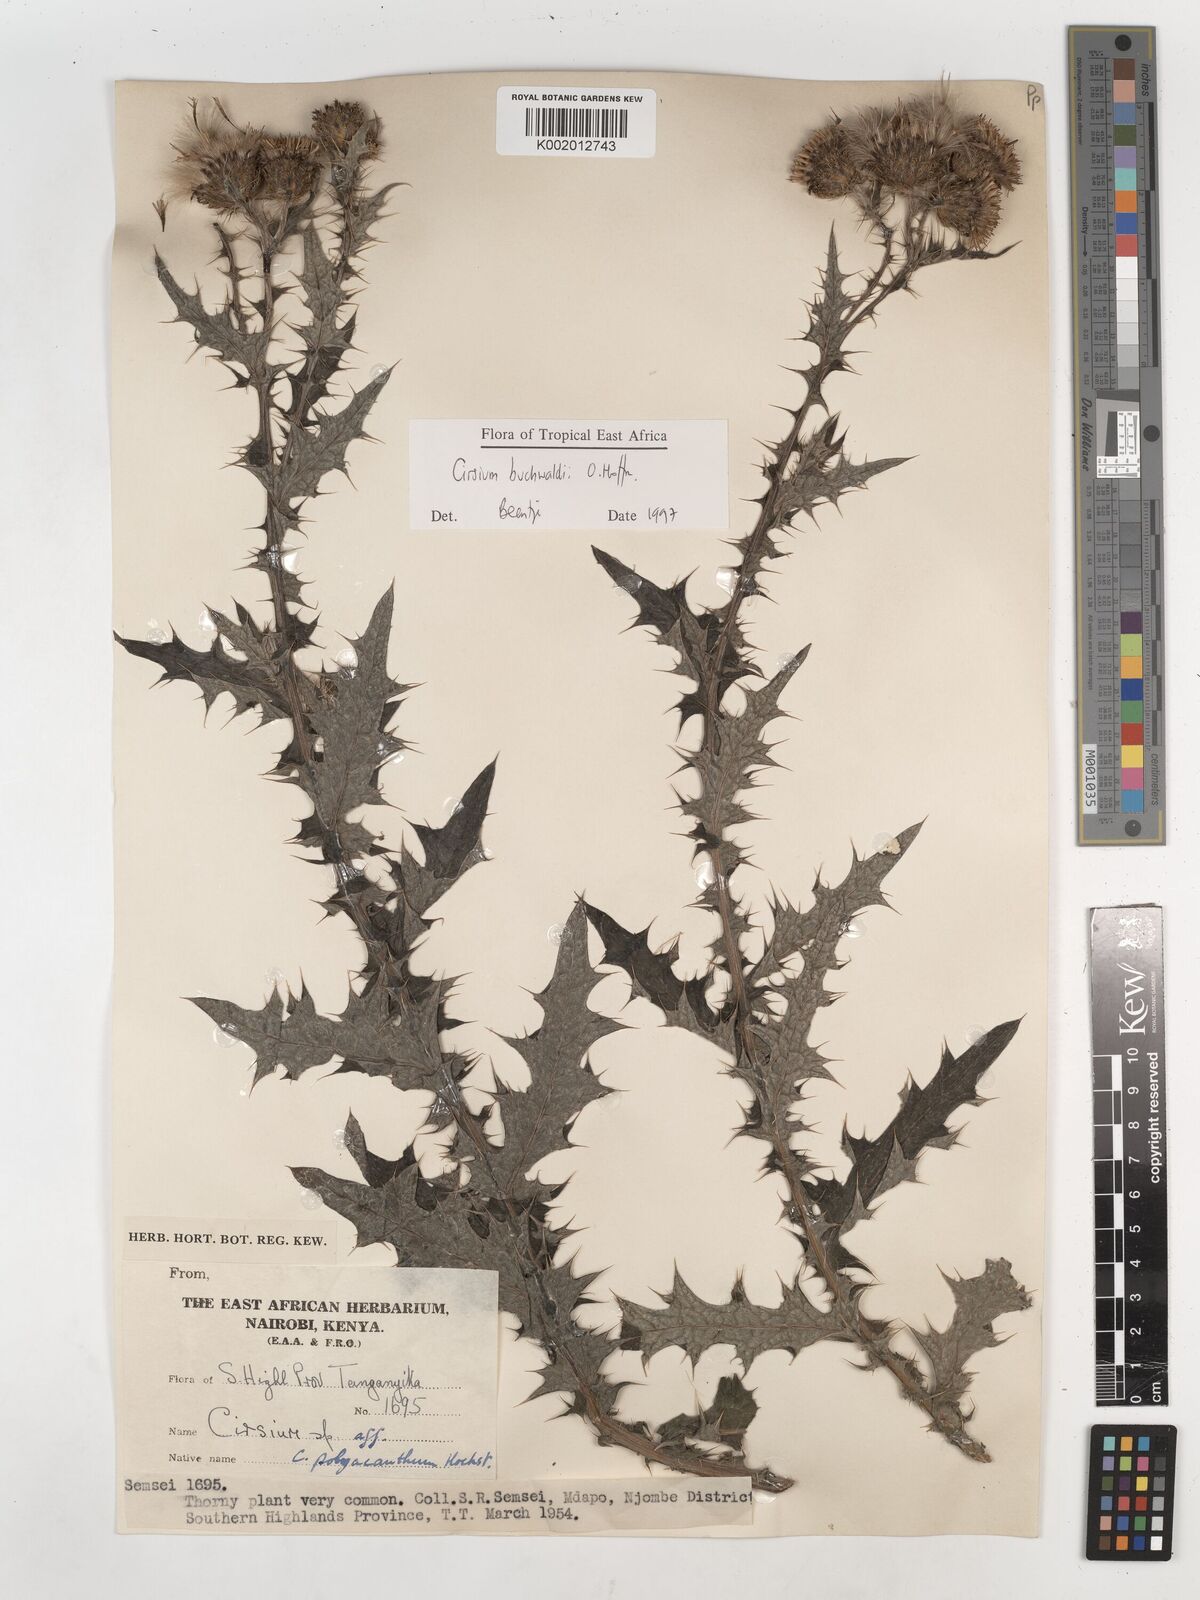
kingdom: Plantae
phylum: Tracheophyta
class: Magnoliopsida
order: Asterales
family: Asteraceae
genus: Cirsium
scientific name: Cirsium buchwaldii
